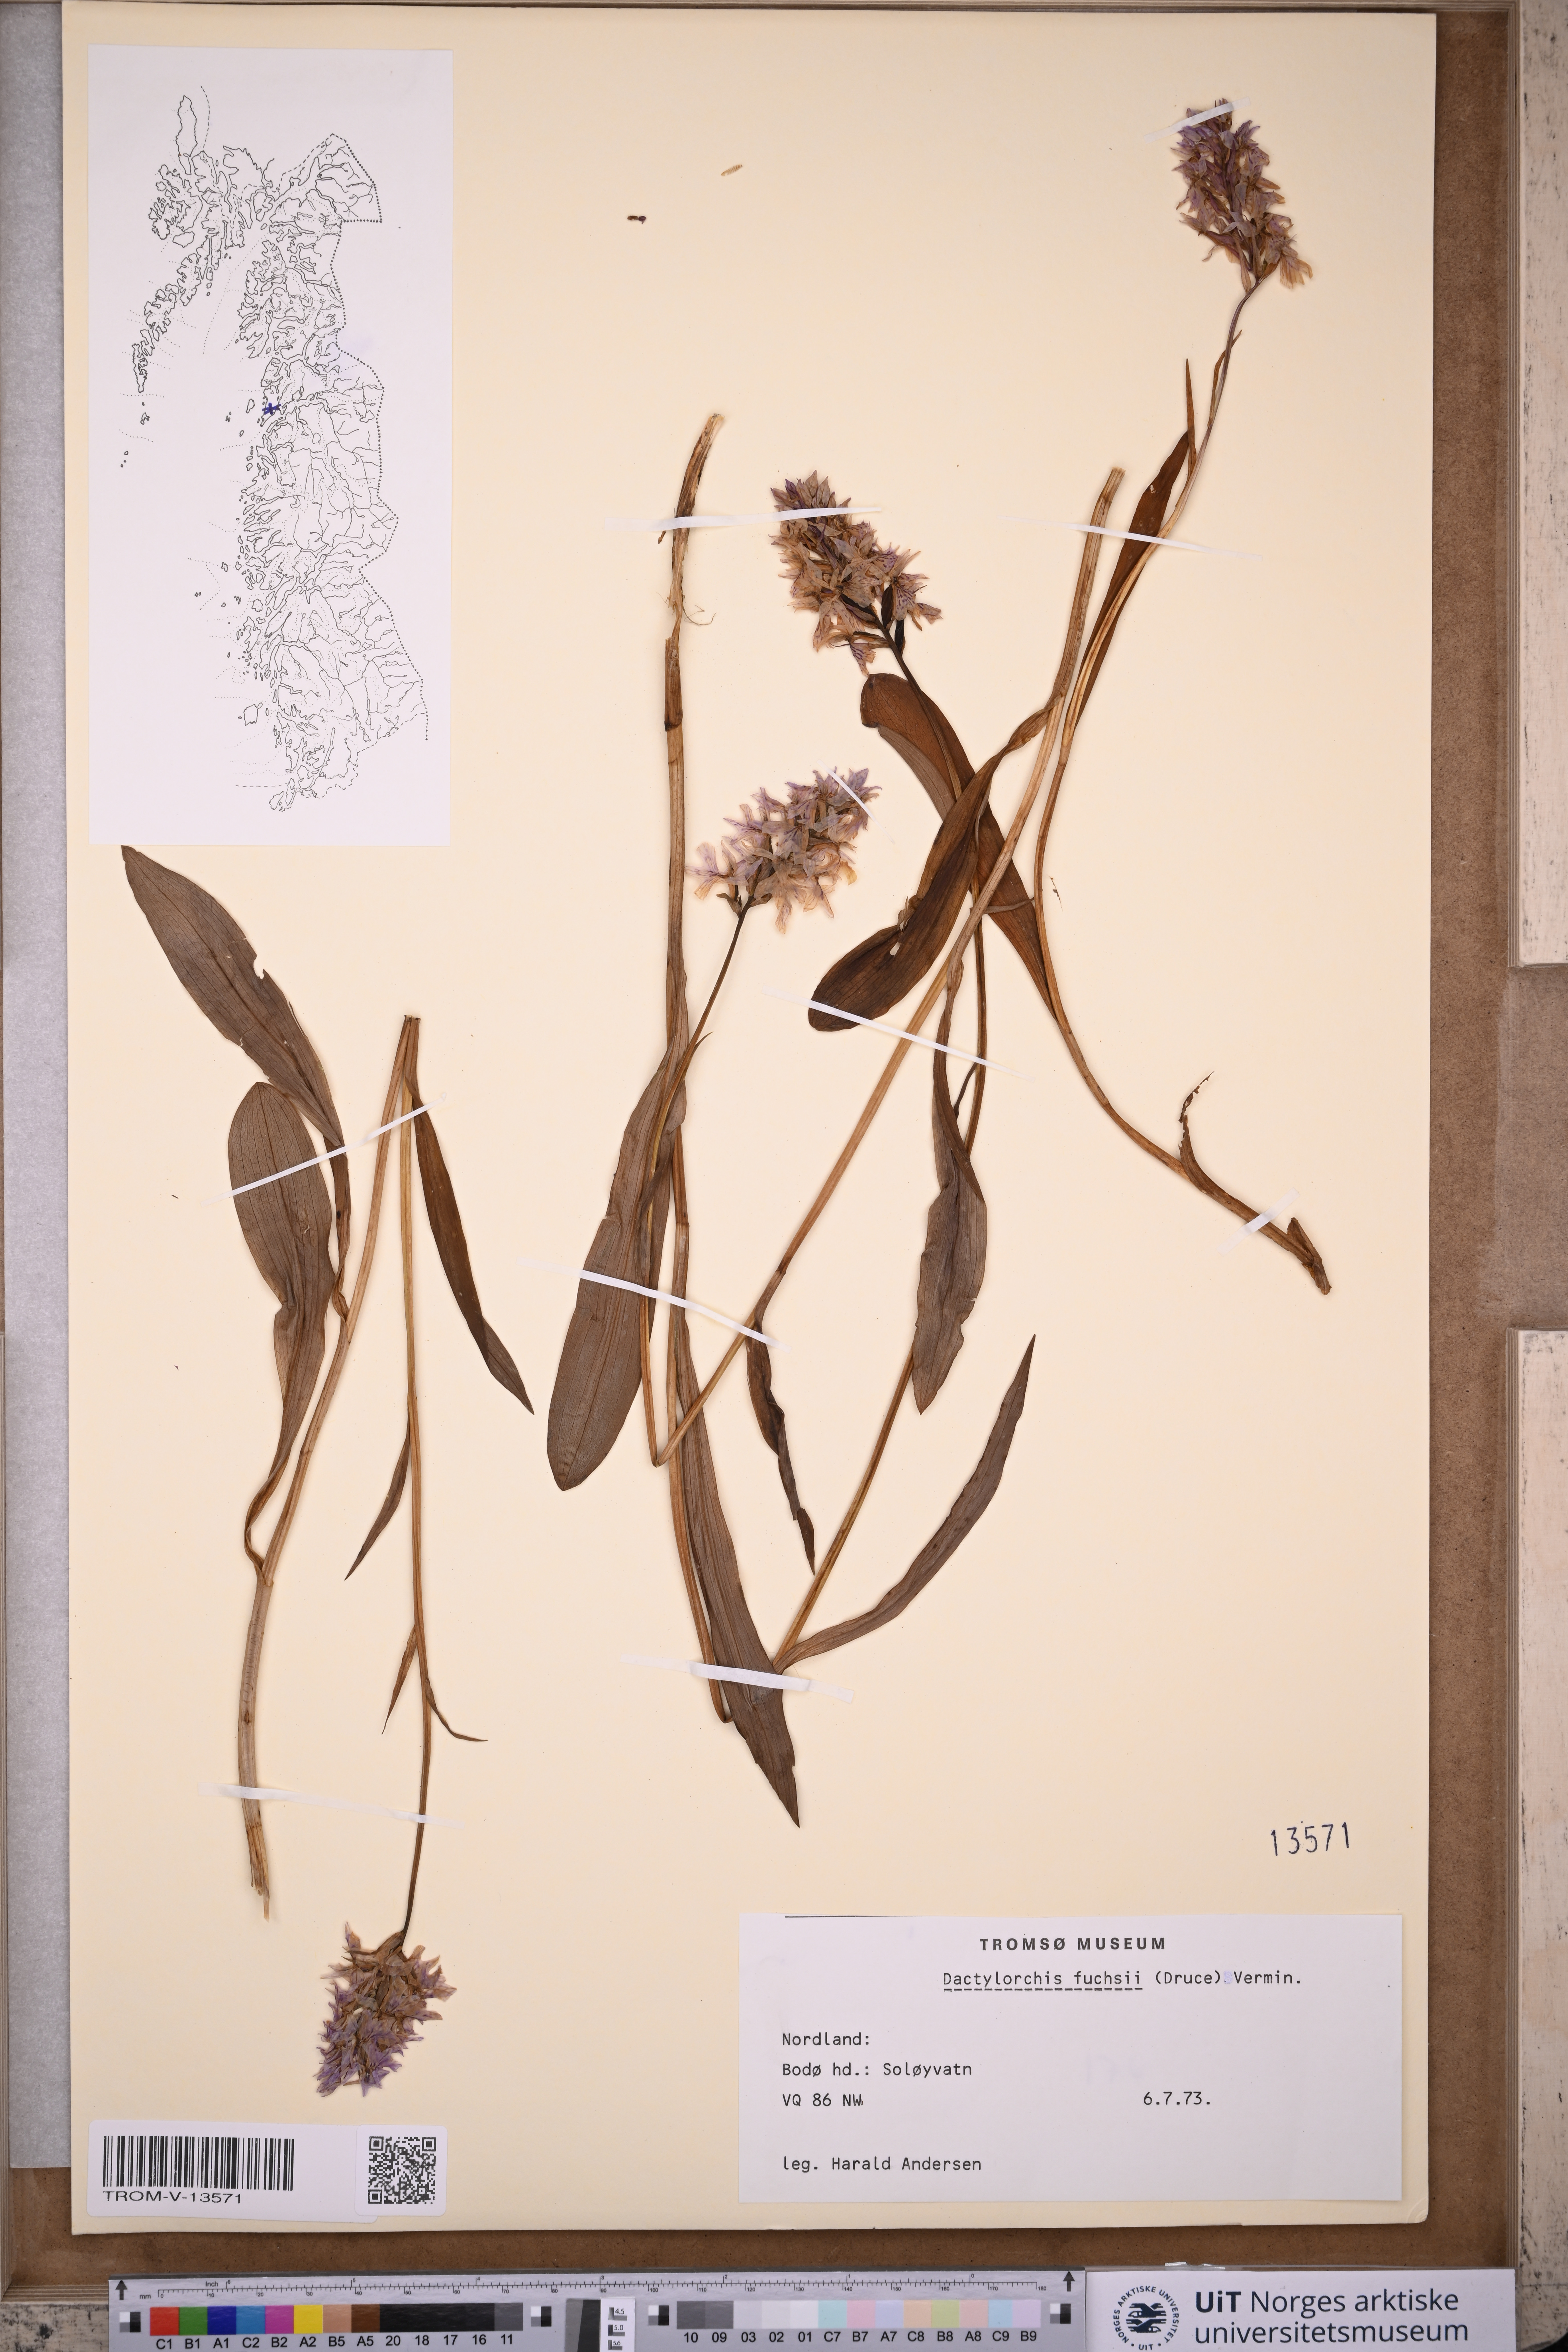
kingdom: Plantae
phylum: Tracheophyta
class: Liliopsida
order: Asparagales
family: Orchidaceae
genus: Dactylorhiza
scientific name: Dactylorhiza maculata
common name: Heath spotted-orchid
